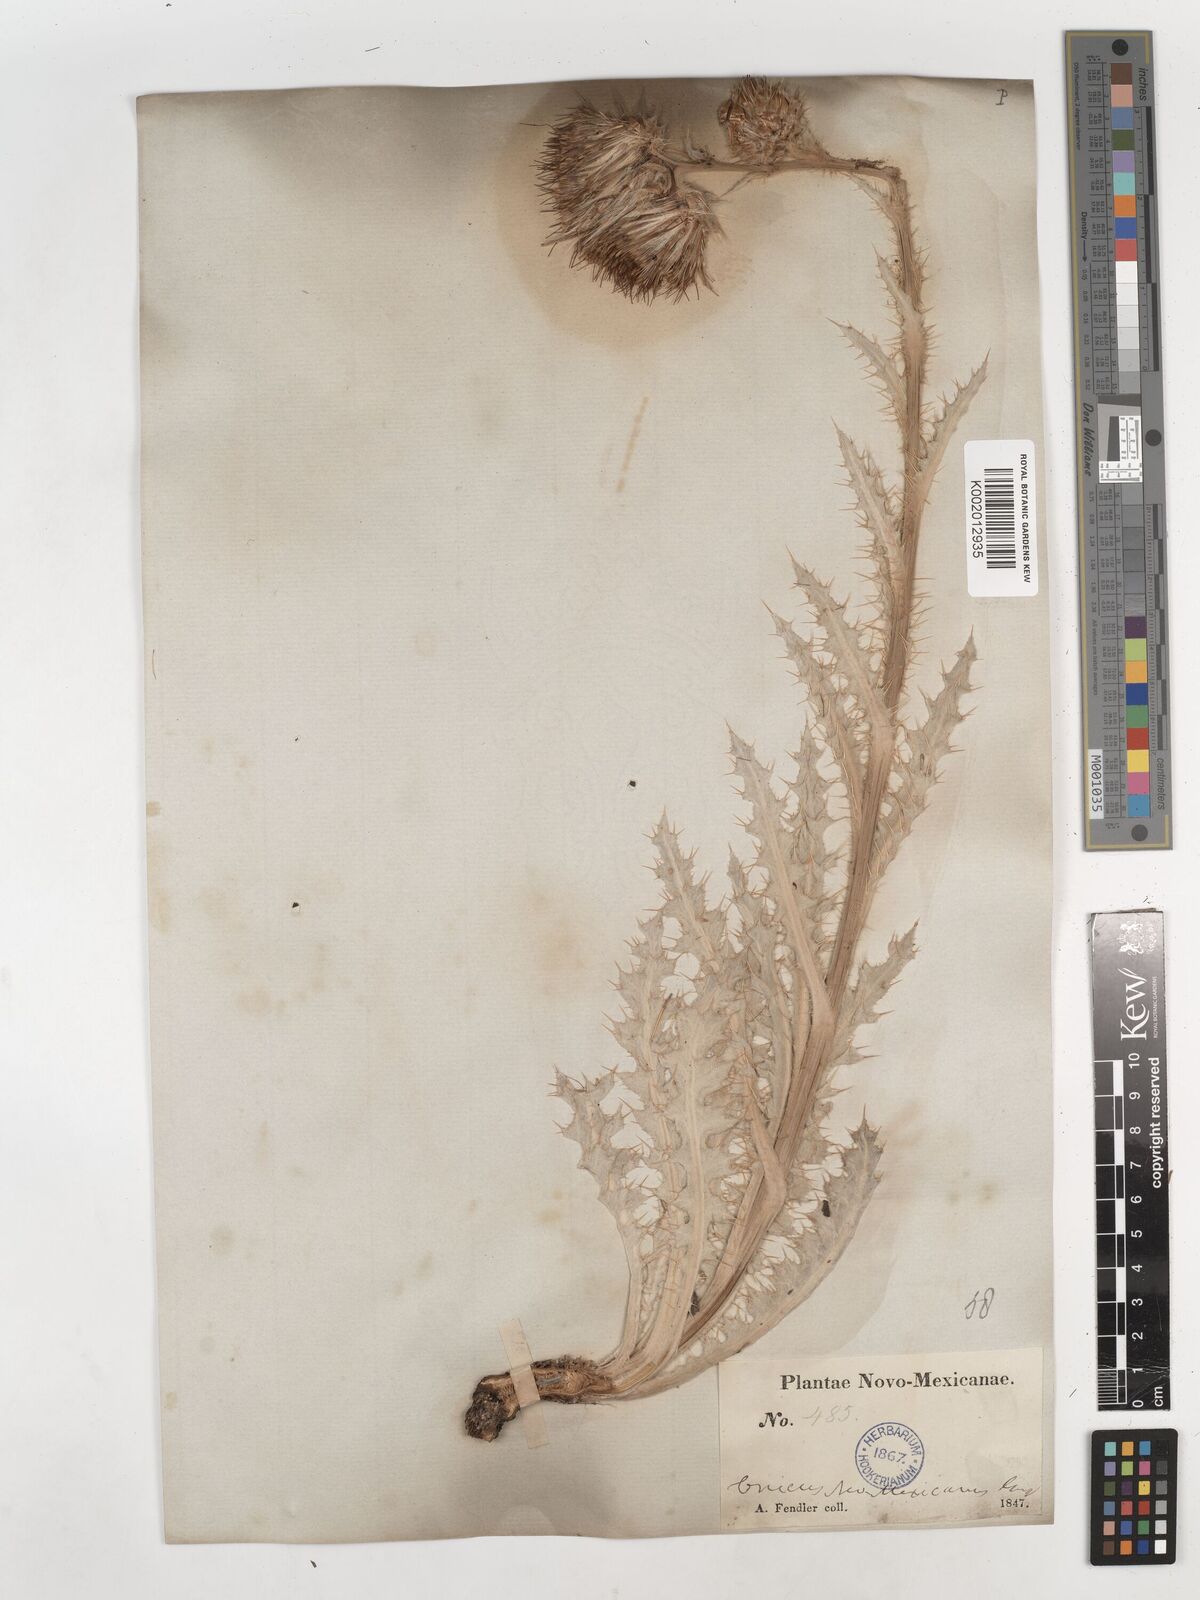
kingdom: Plantae
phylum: Tracheophyta
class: Magnoliopsida
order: Asterales
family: Asteraceae
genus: Cirsium
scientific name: Cirsium neomexicanum
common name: New mexico thistle
